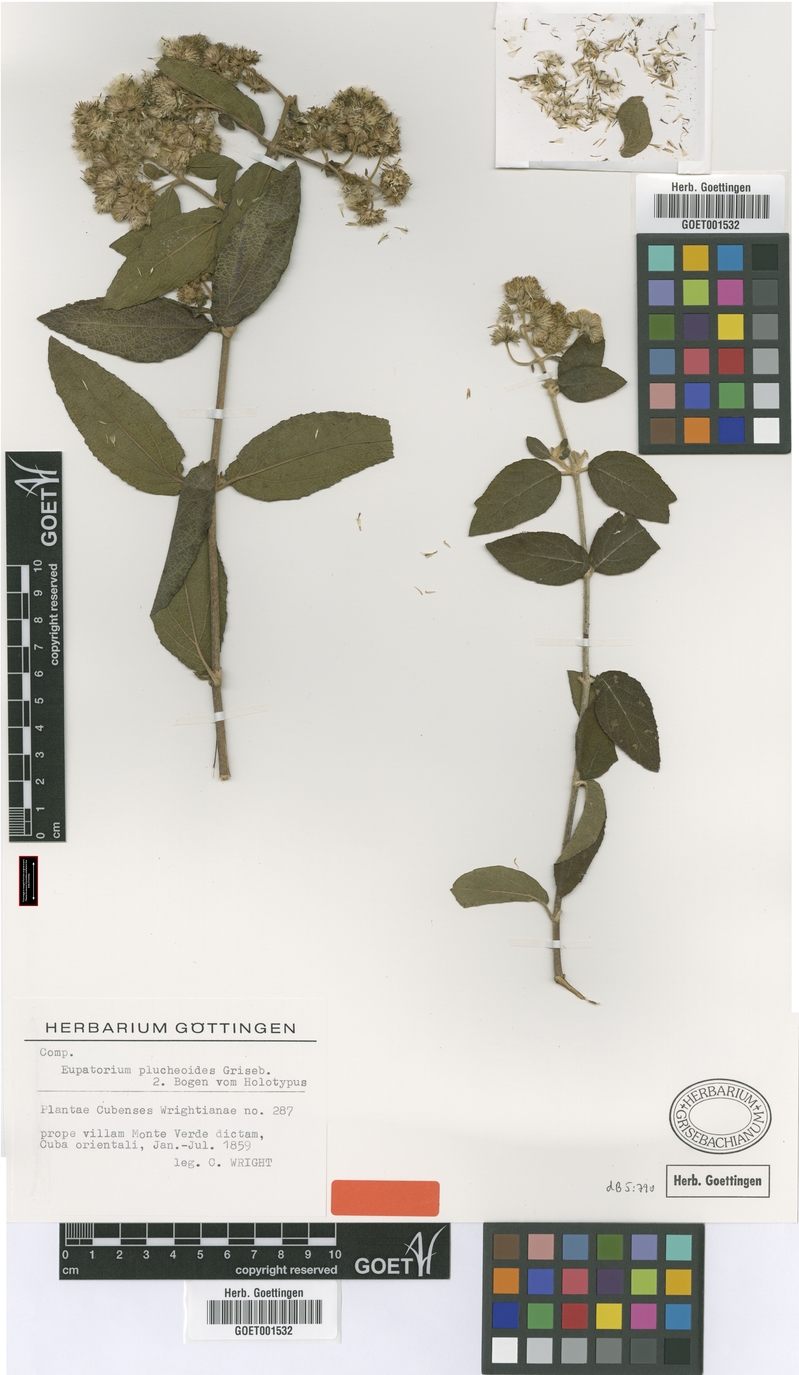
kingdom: Plantae
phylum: Tracheophyta
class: Magnoliopsida
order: Asterales
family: Asteraceae
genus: Grisebachianthus
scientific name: Grisebachianthus plucheoides
